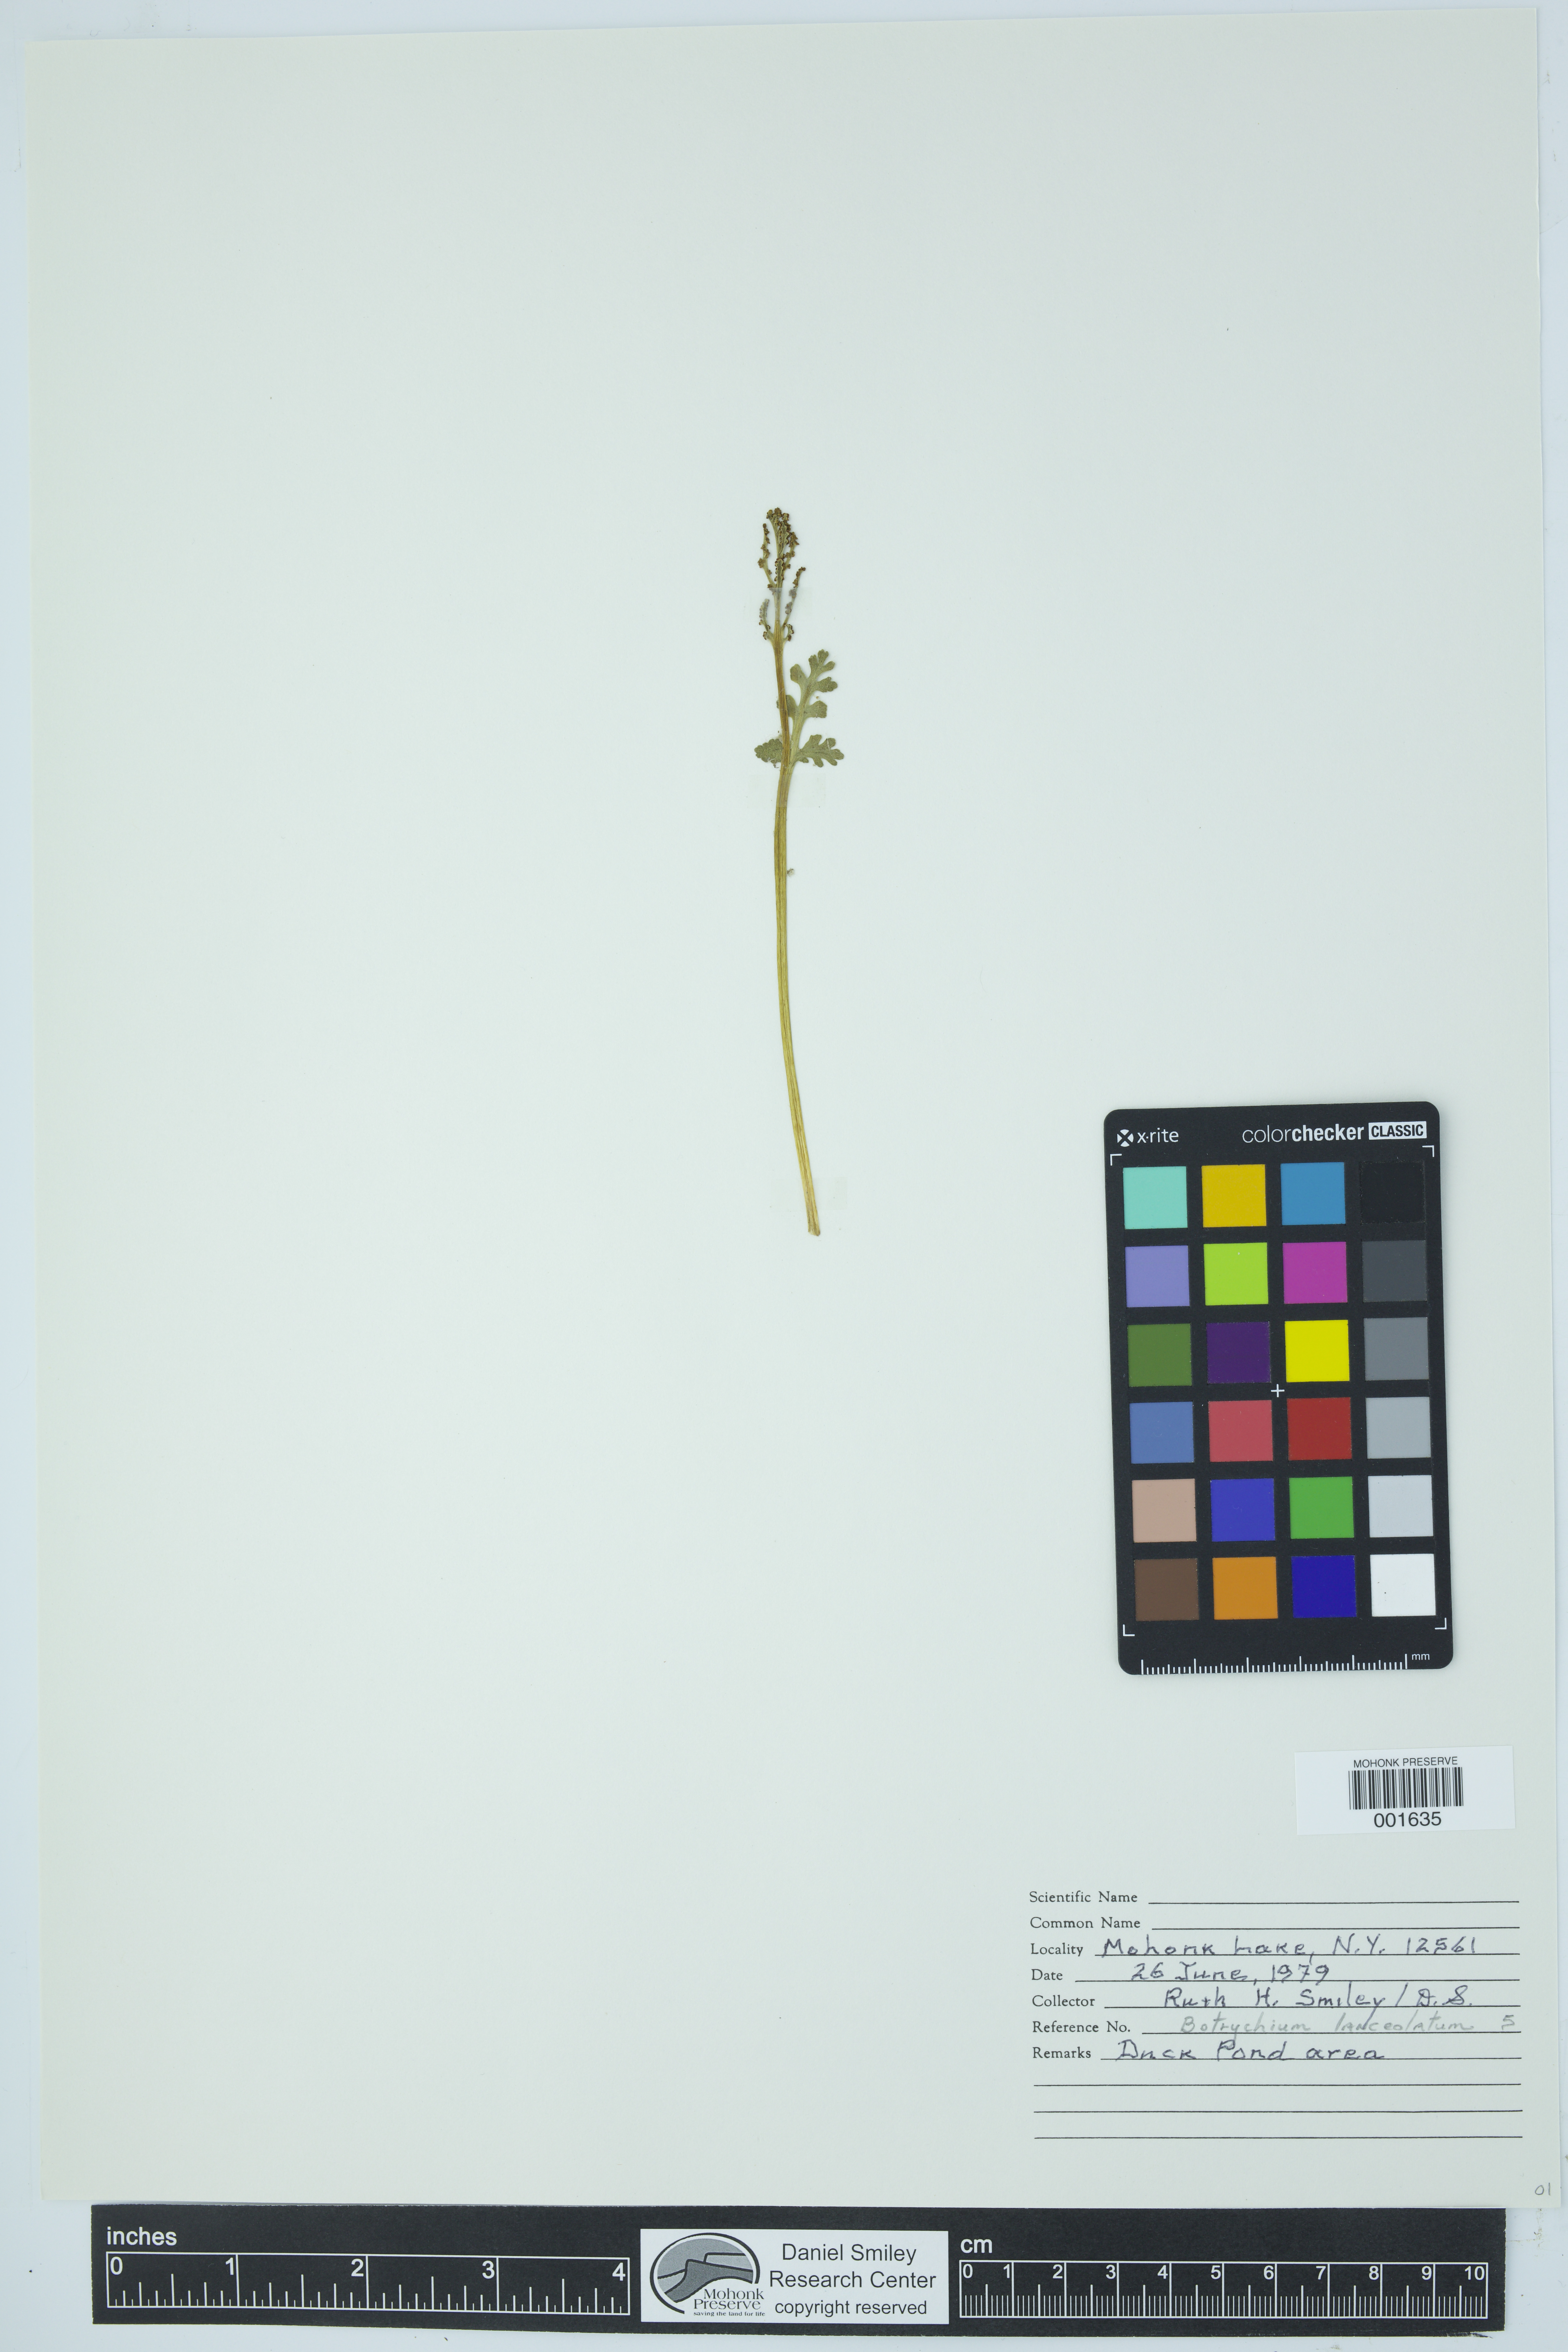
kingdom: Plantae
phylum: Tracheophyta
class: Polypodiopsida
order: Ophioglossales
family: Ophioglossaceae
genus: Botrychium
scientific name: Botrychium lanceolatum
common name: Lance-leaved moonwort
